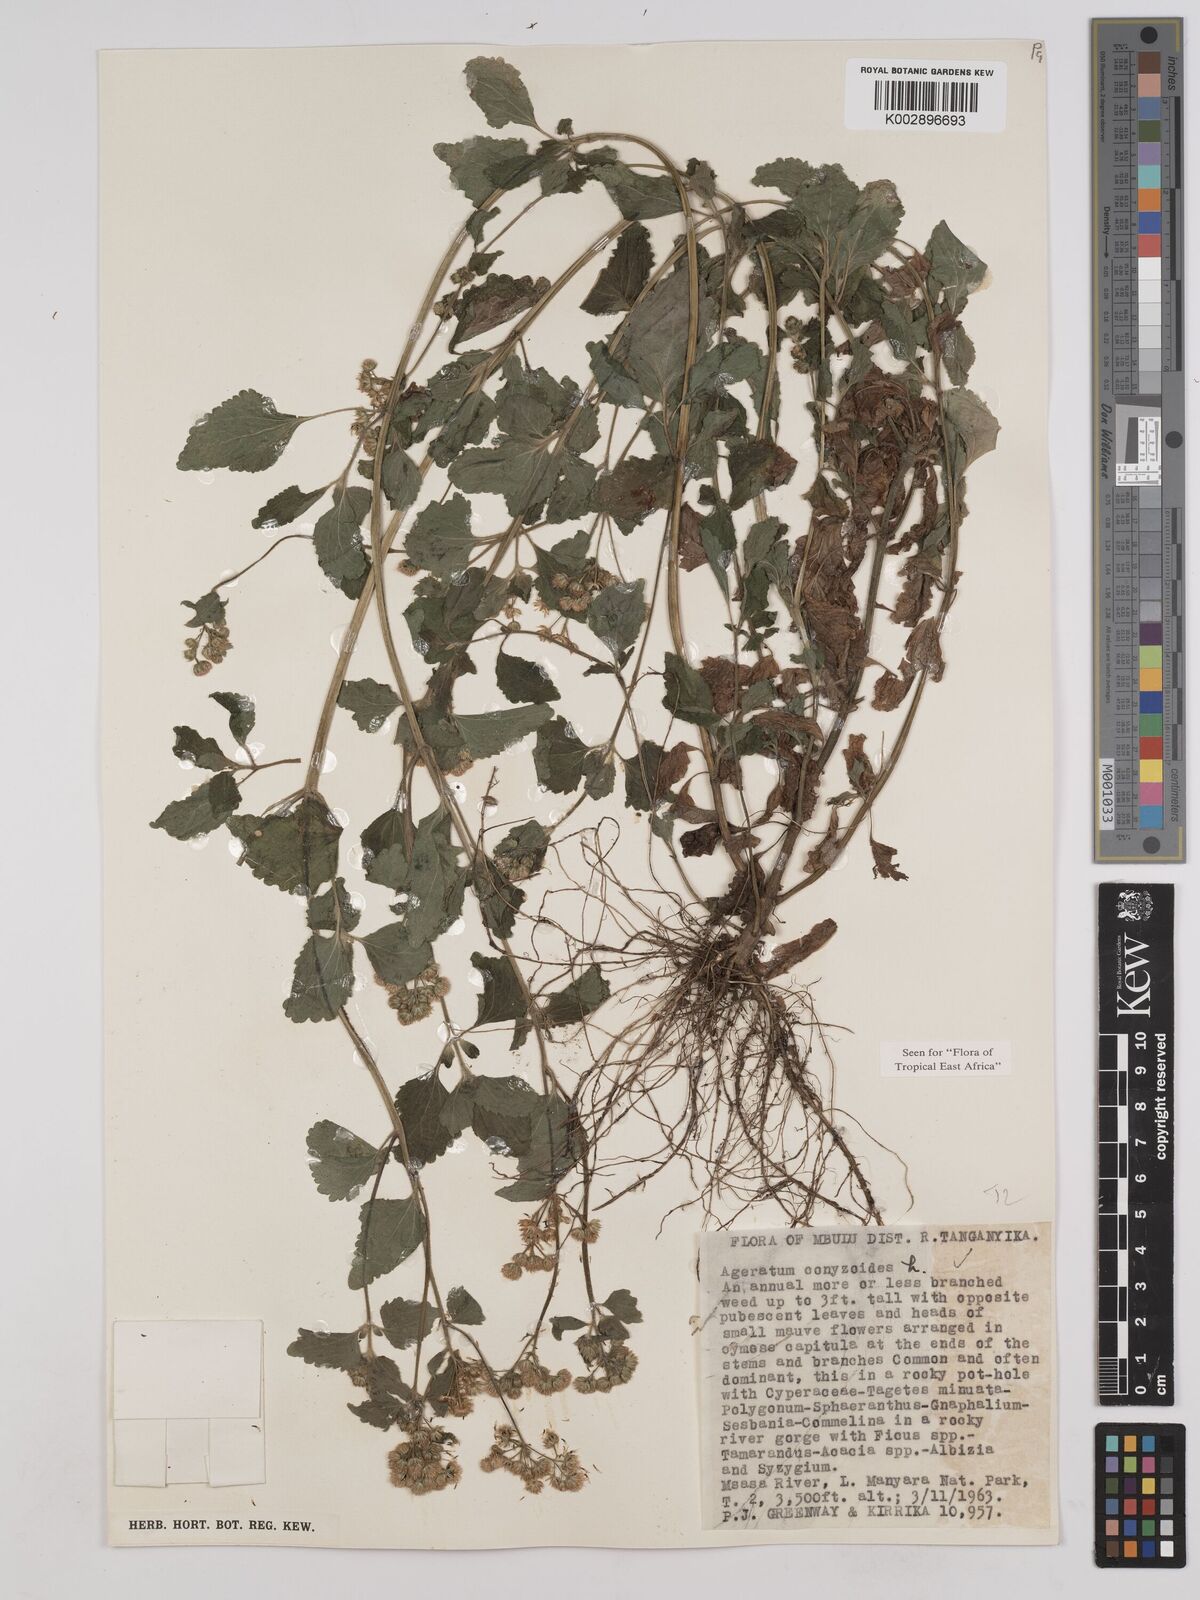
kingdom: Plantae
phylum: Tracheophyta
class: Magnoliopsida
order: Asterales
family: Asteraceae
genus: Ageratum
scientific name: Ageratum conyzoides
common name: Tropical whiteweed
